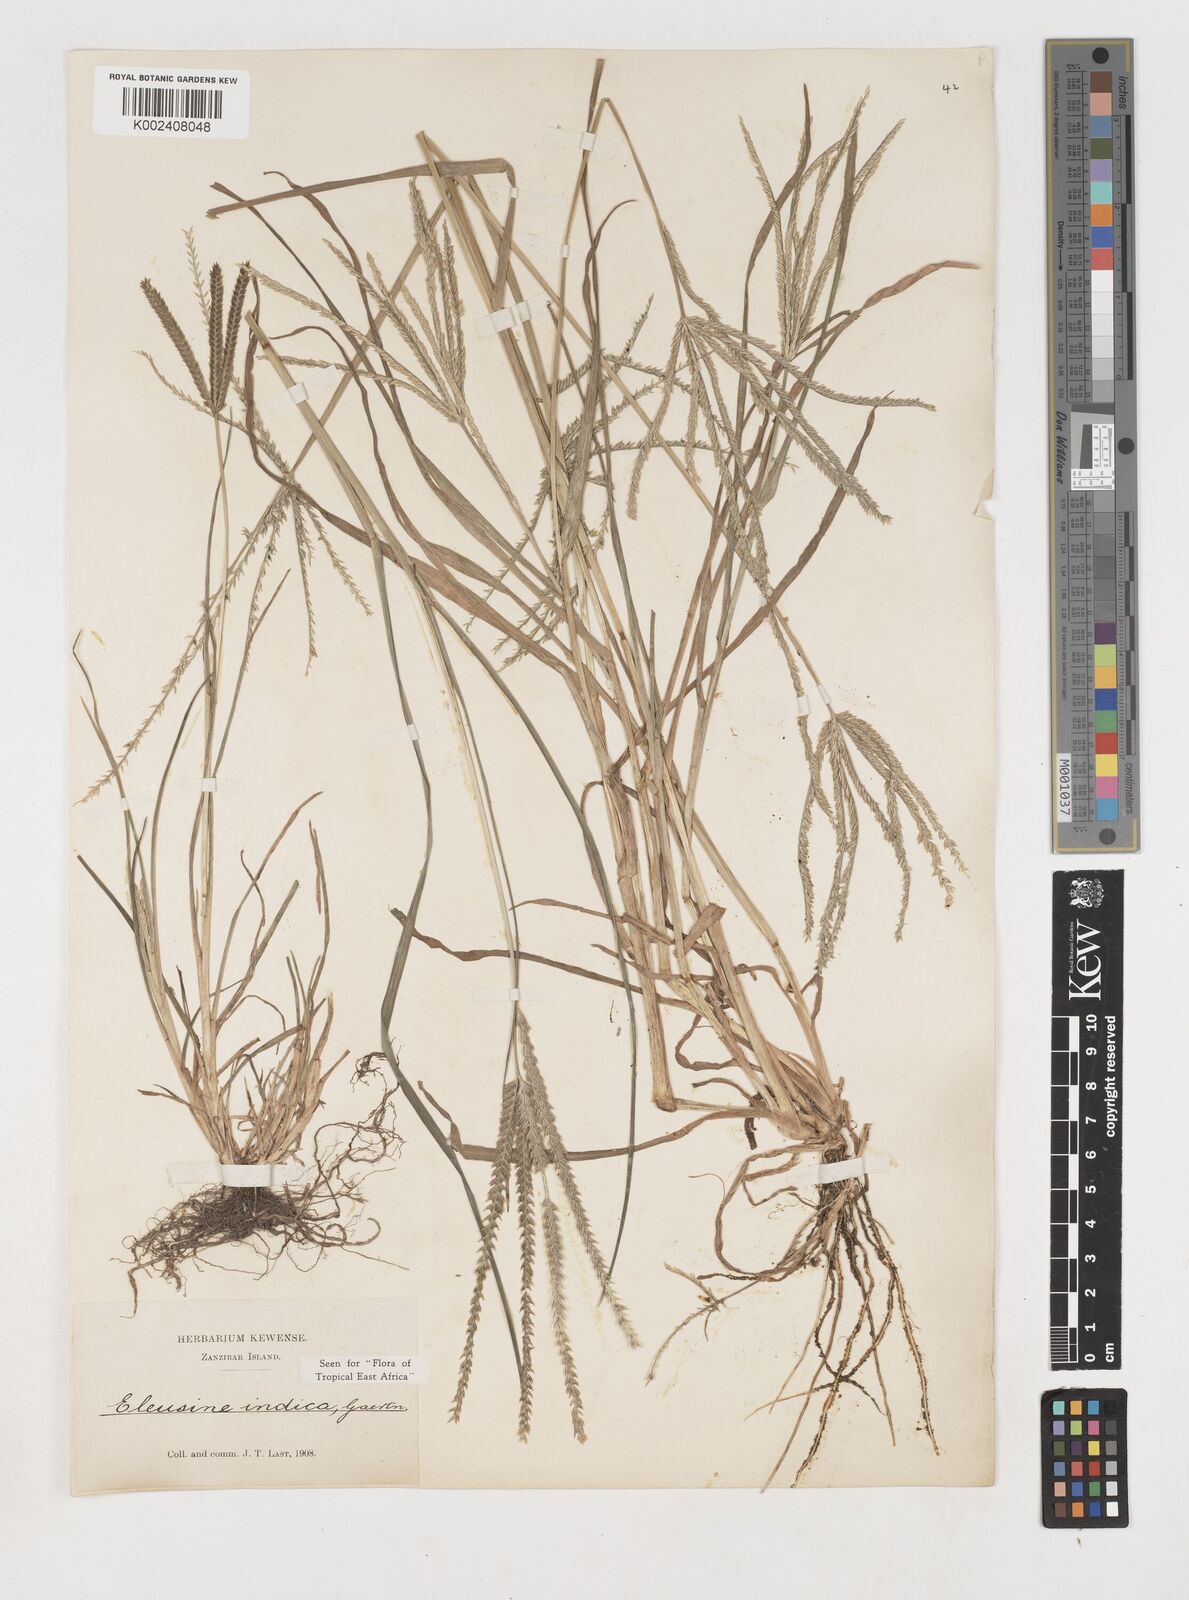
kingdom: Plantae
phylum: Tracheophyta
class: Liliopsida
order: Poales
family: Poaceae
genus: Eleusine
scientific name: Eleusine indica
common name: Yard-grass
